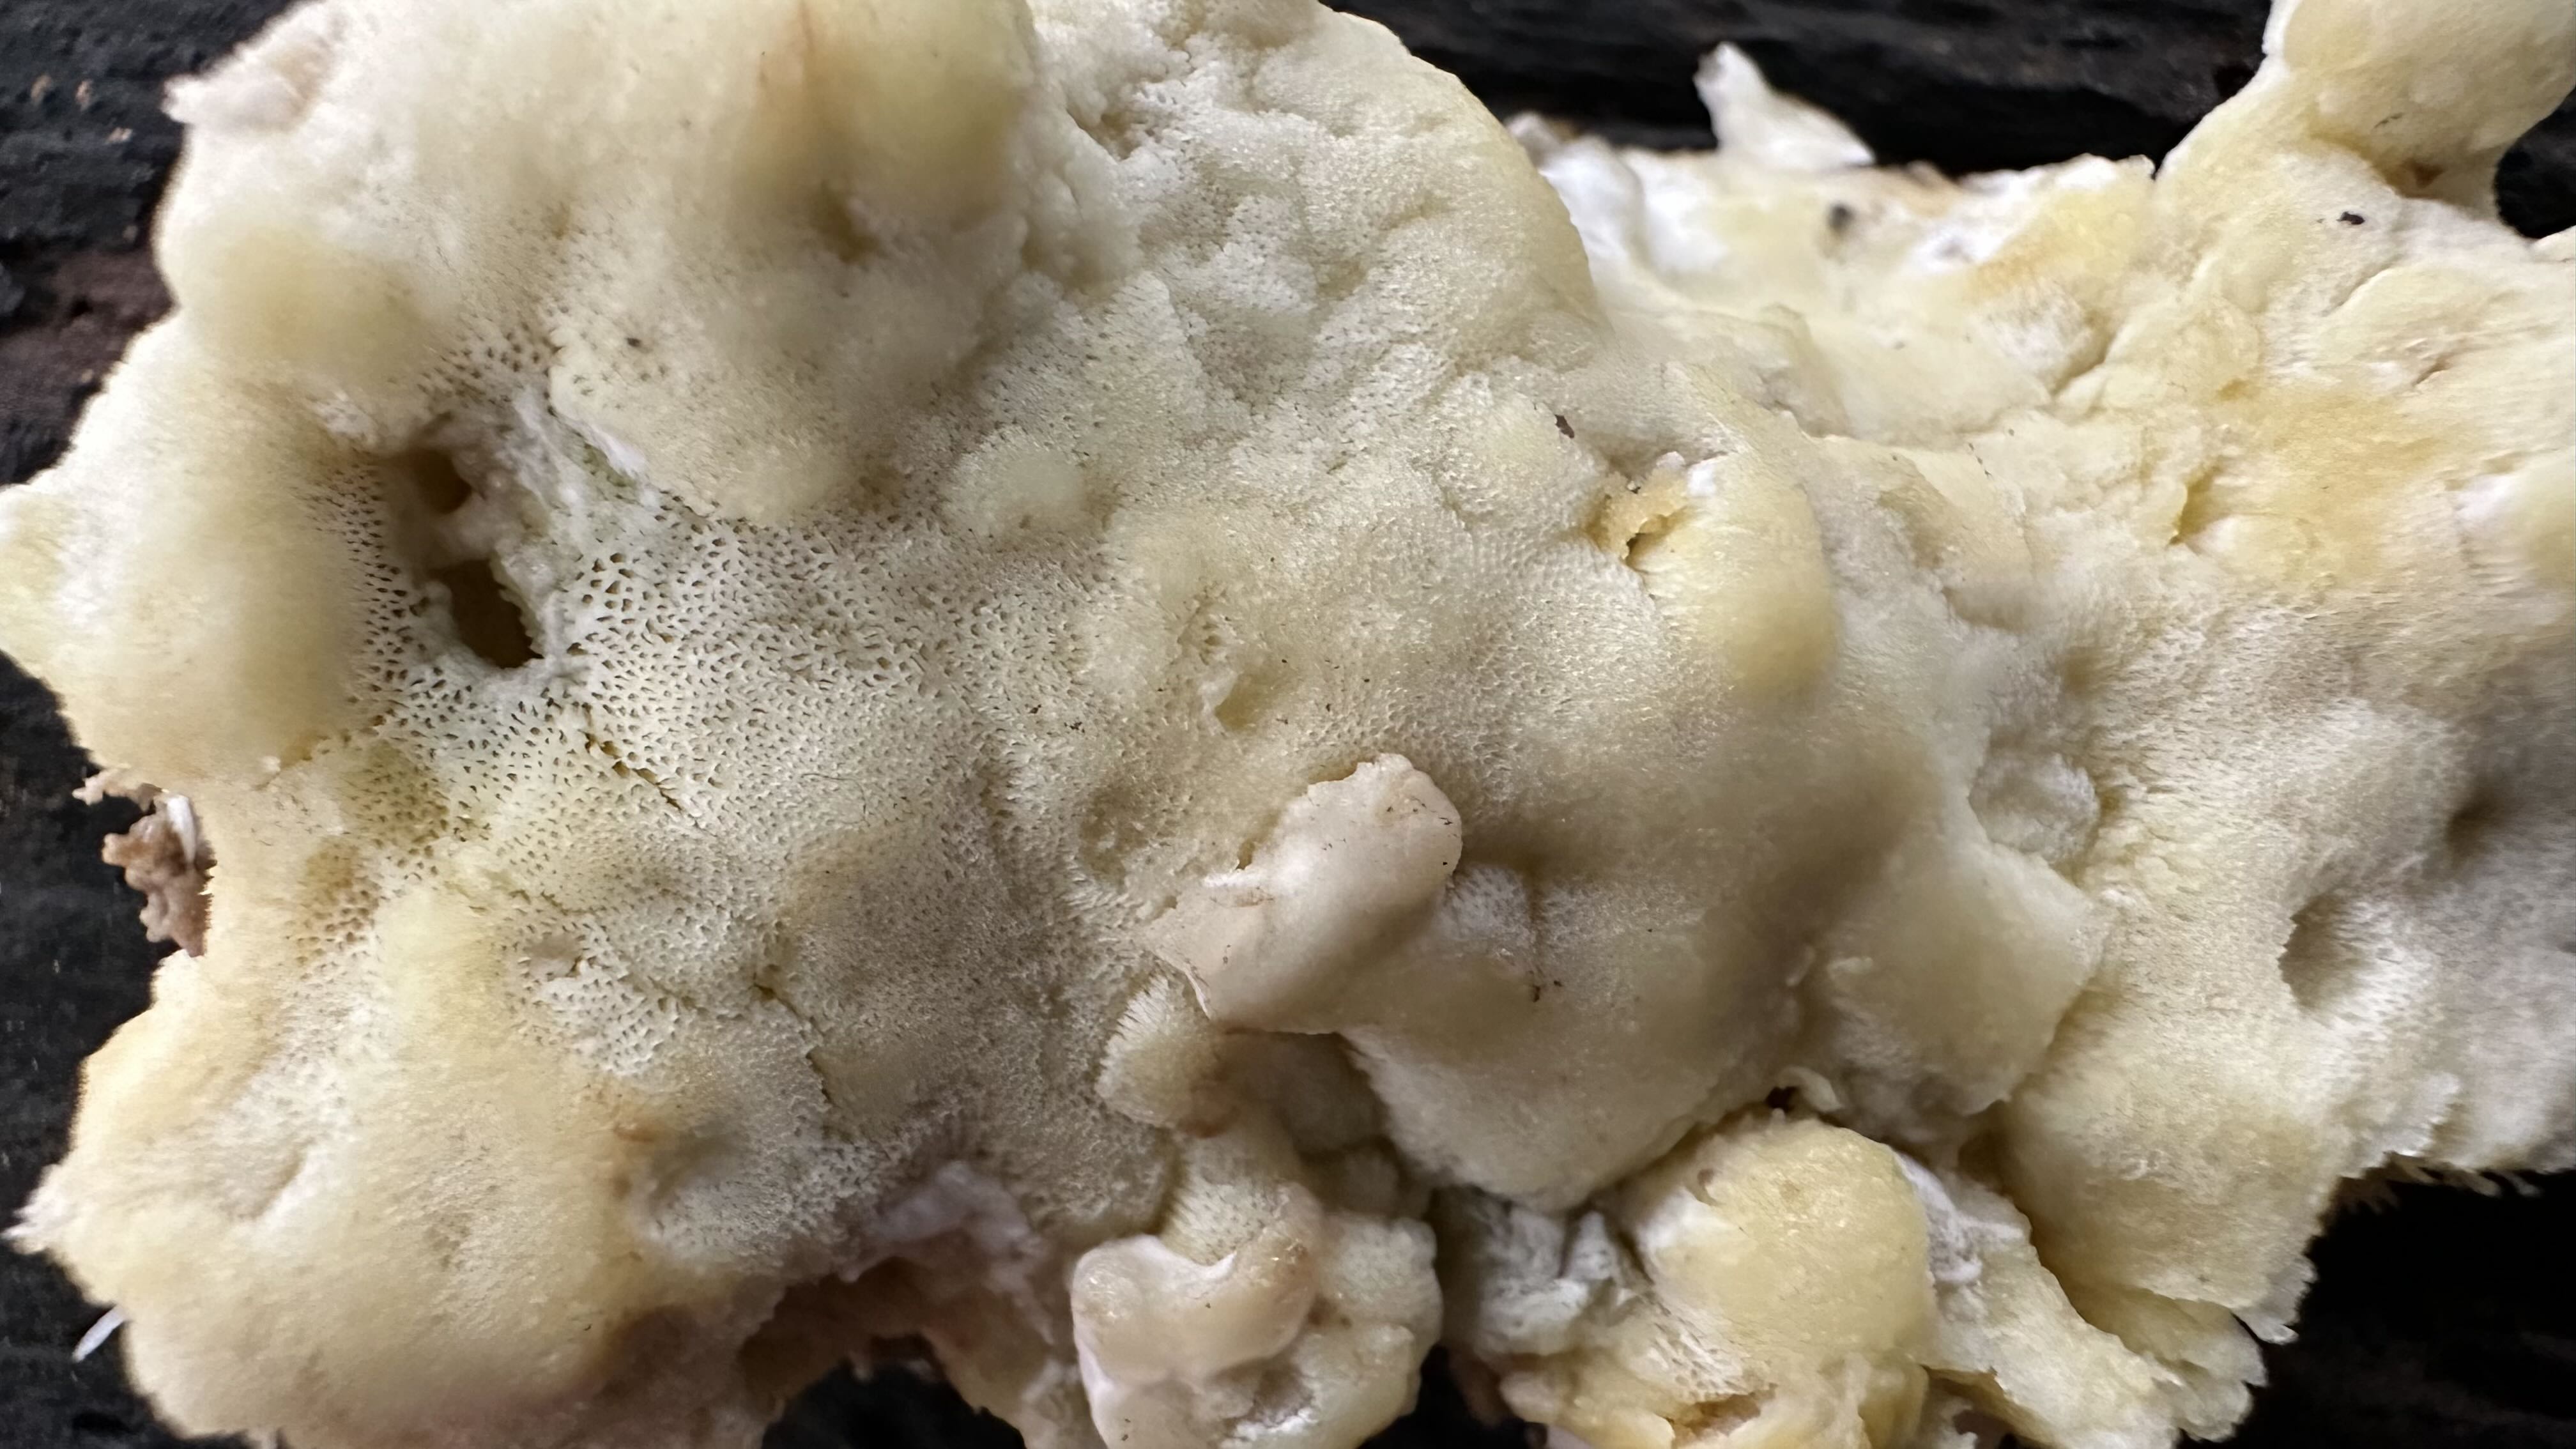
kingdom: Fungi
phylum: Basidiomycota
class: Agaricomycetes
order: Polyporales
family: Irpicaceae
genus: Gloeoporus
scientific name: Gloeoporus pannocinctus
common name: grøngul foldporesvamp
